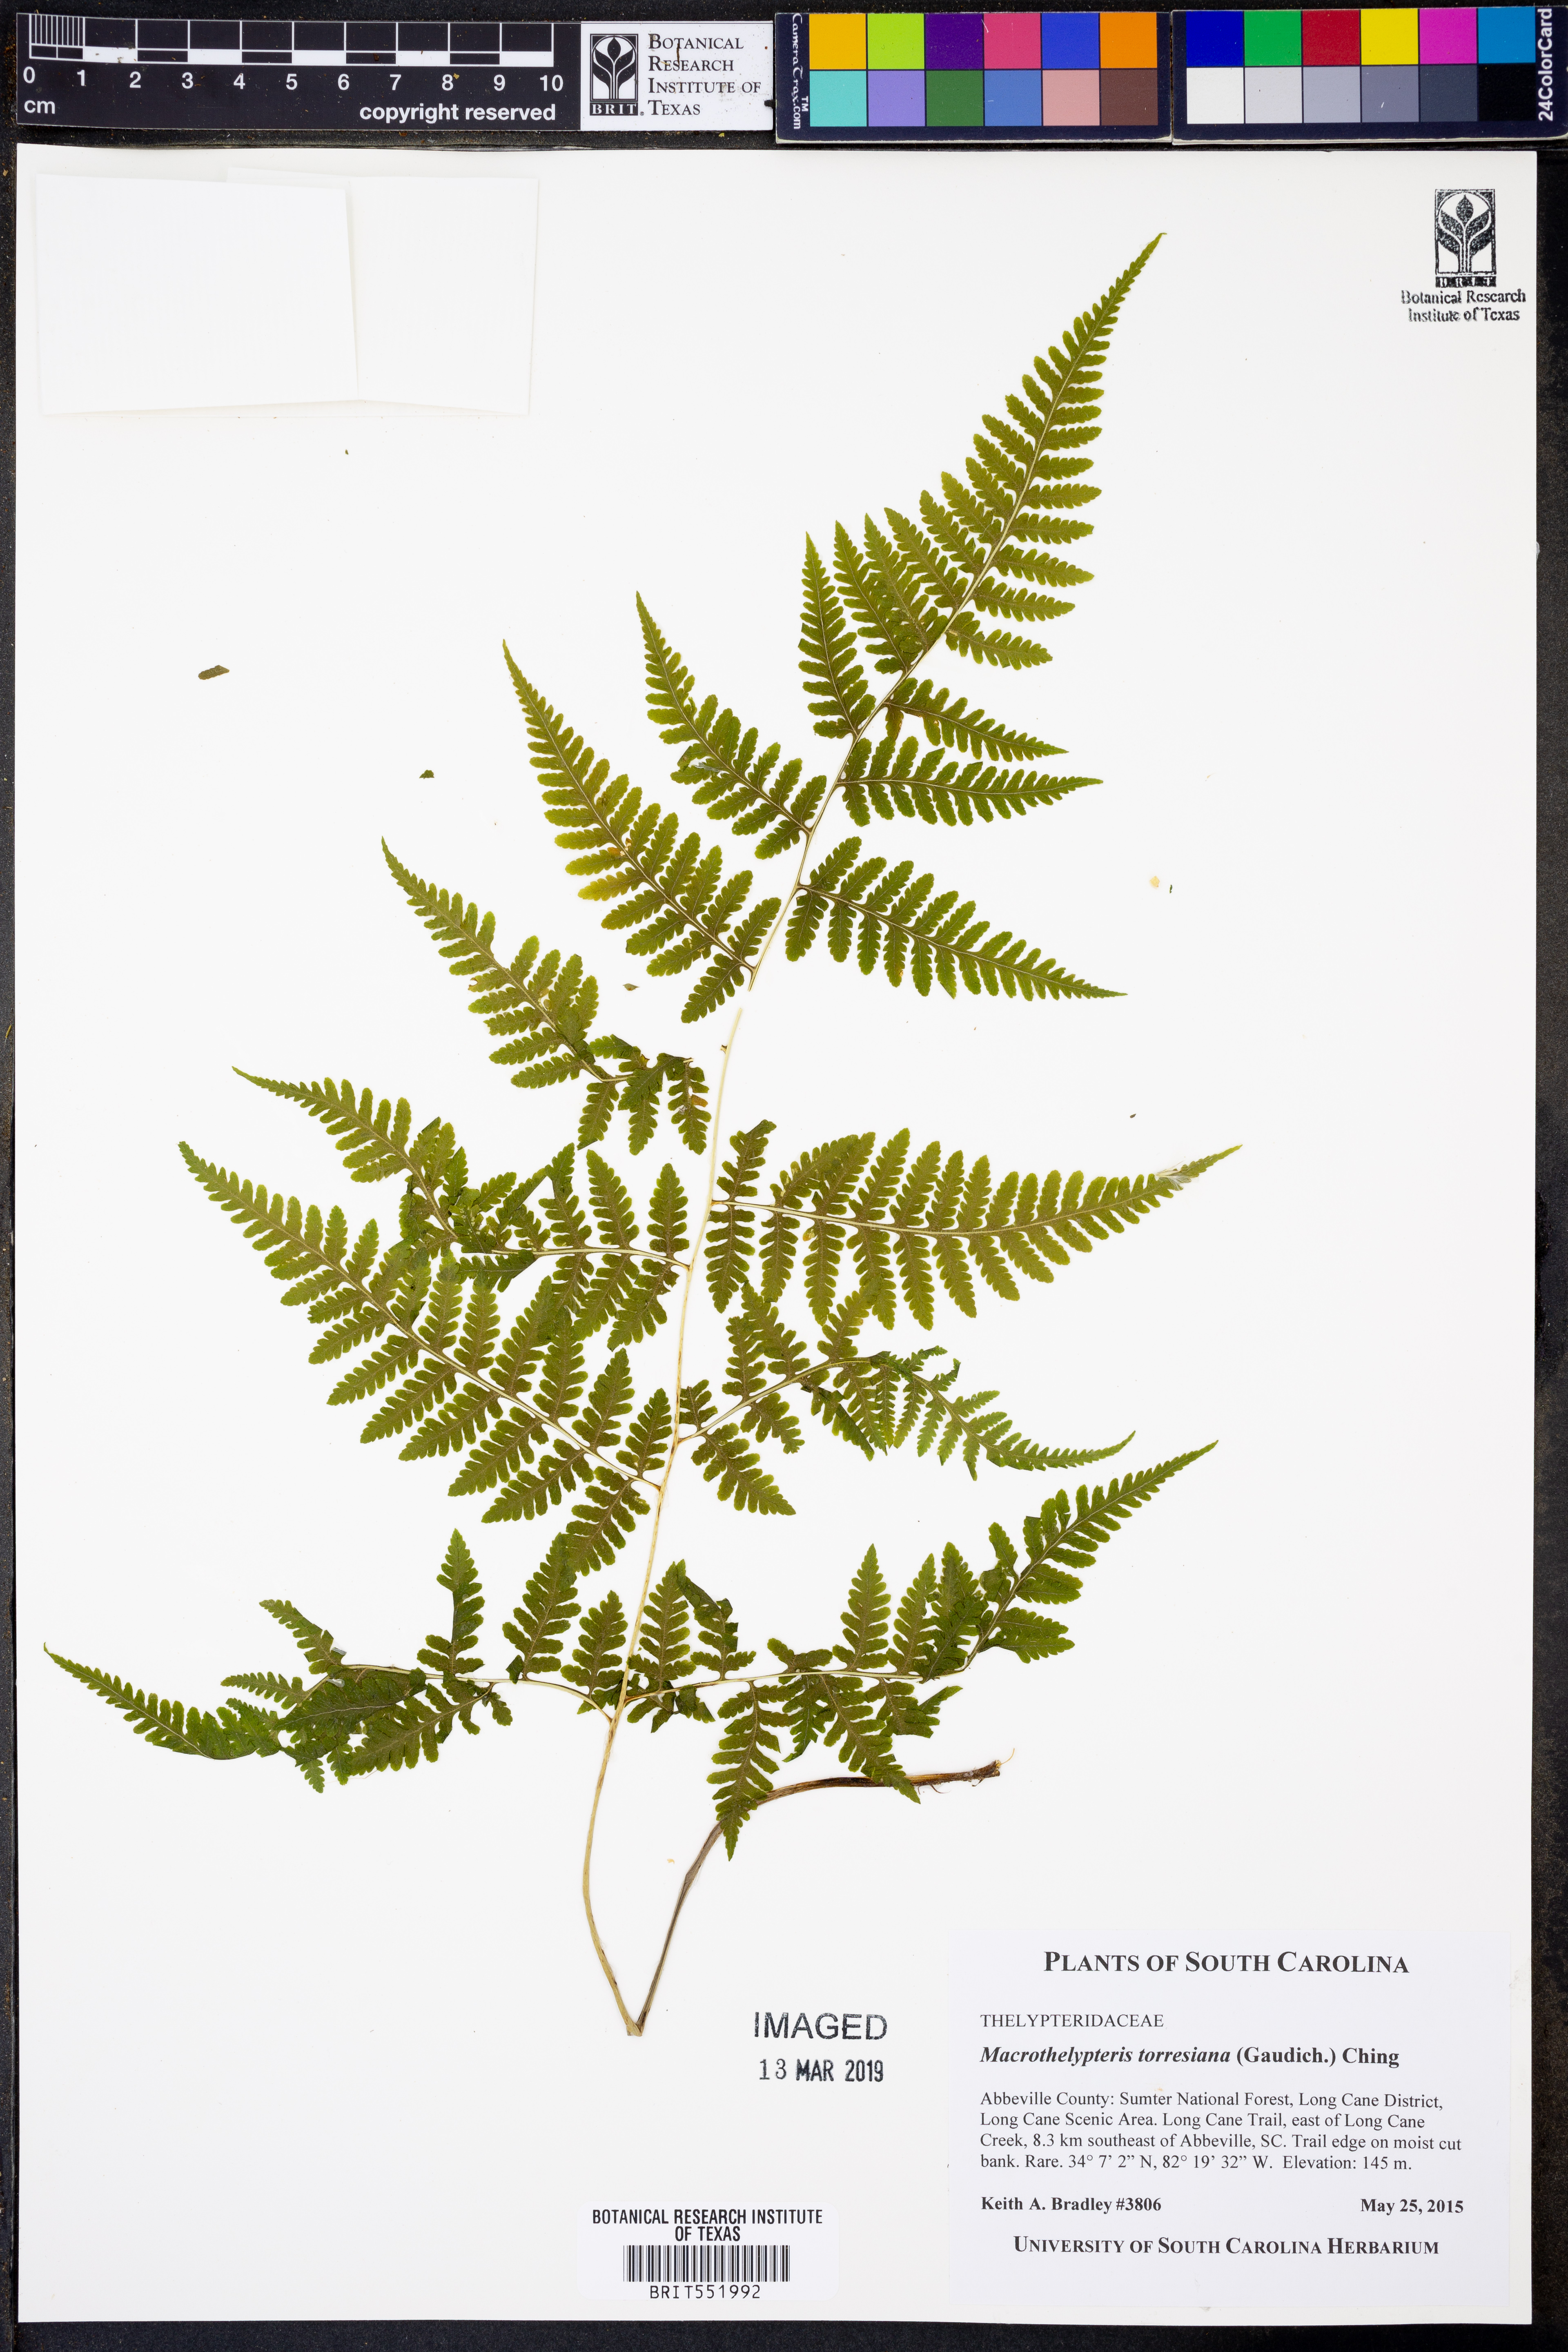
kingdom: Plantae
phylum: Tracheophyta
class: Polypodiopsida
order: Polypodiales
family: Thelypteridaceae
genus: Macrothelypteris
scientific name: Macrothelypteris torresiana
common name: Swordfern
